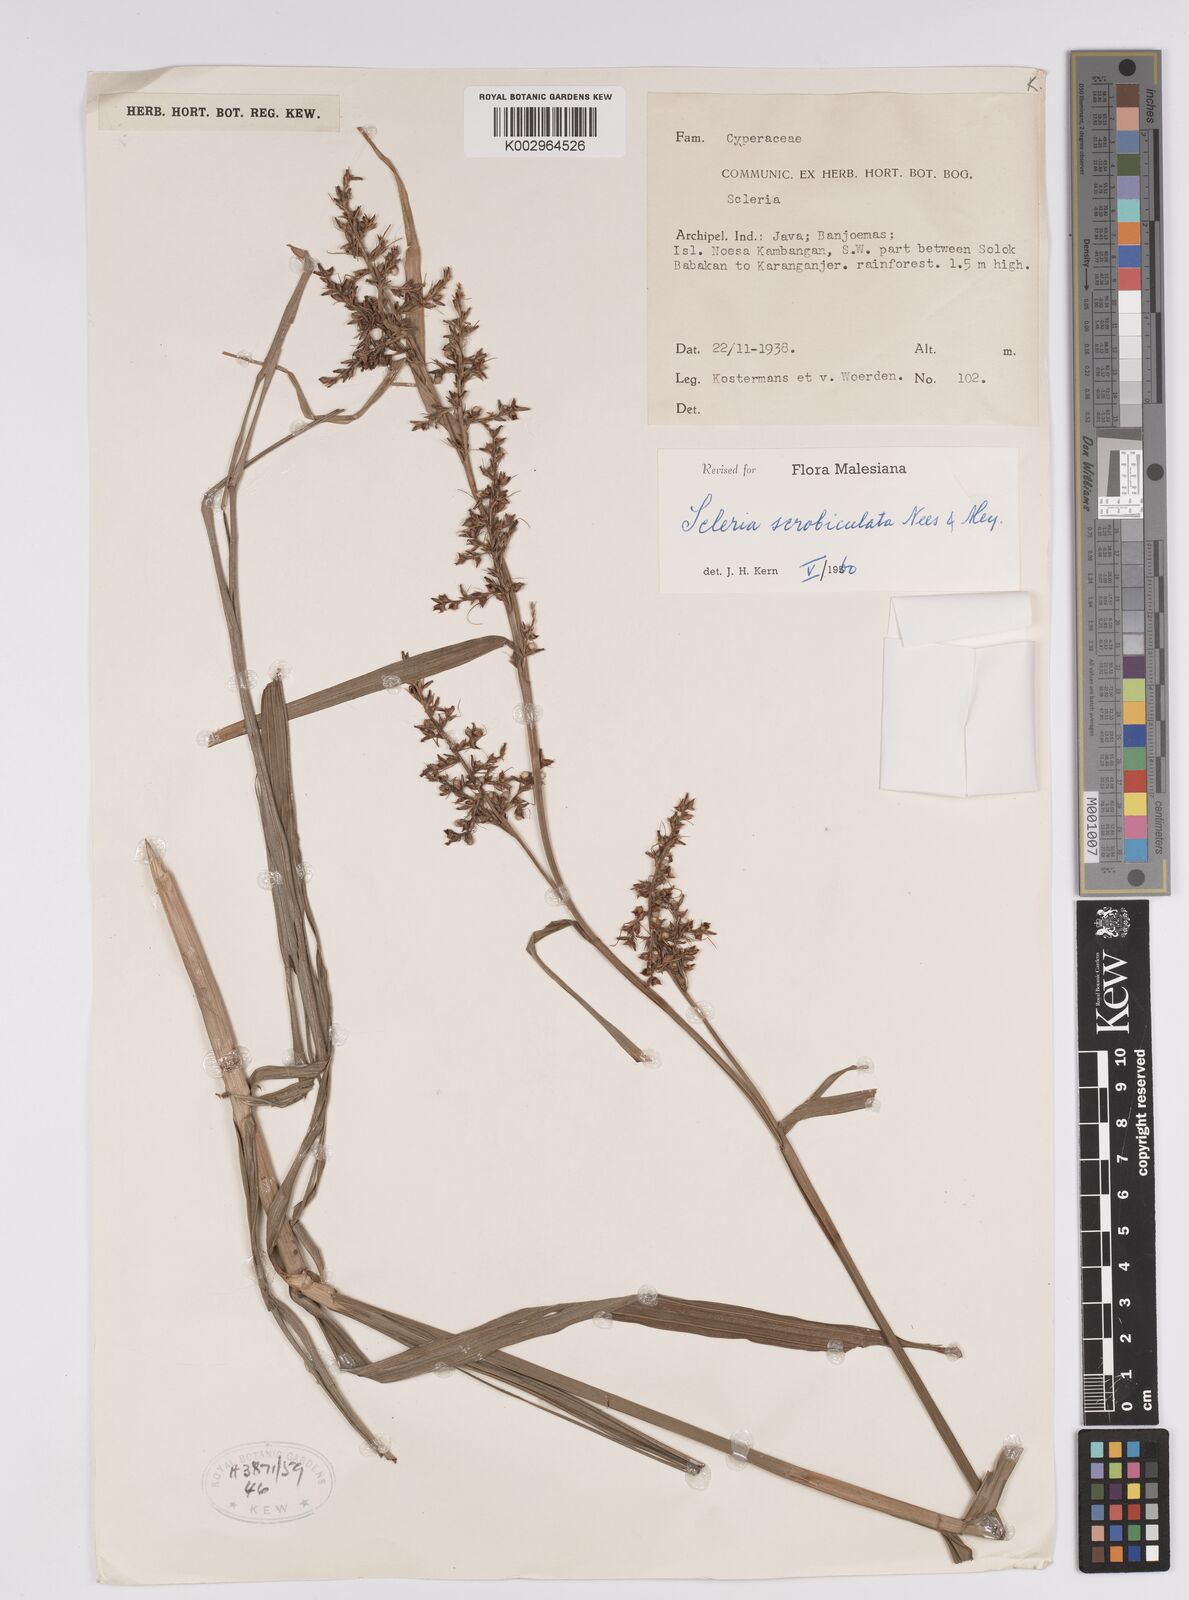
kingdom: Plantae
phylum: Tracheophyta
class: Liliopsida
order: Poales
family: Cyperaceae
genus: Scleria
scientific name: Scleria scrobiculata
